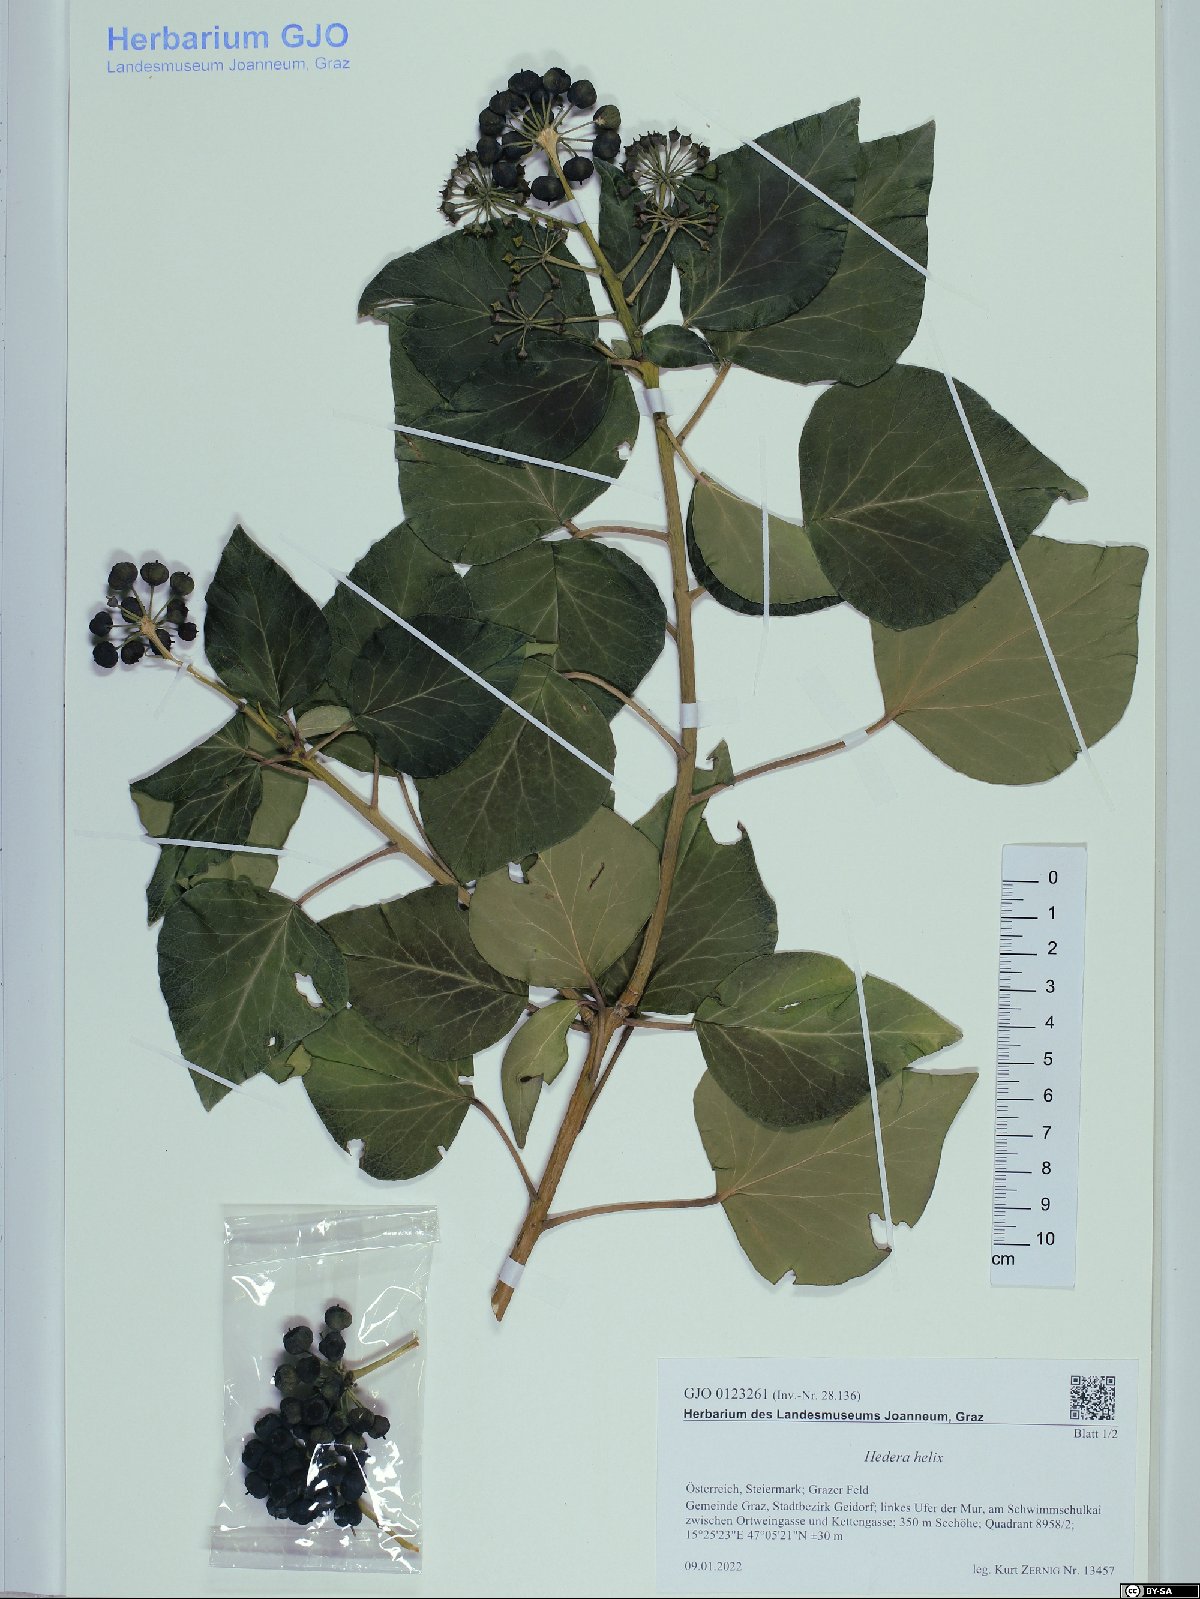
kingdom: Plantae
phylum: Tracheophyta
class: Magnoliopsida
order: Apiales
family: Araliaceae
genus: Hedera
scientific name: Hedera helix
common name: Ivy
